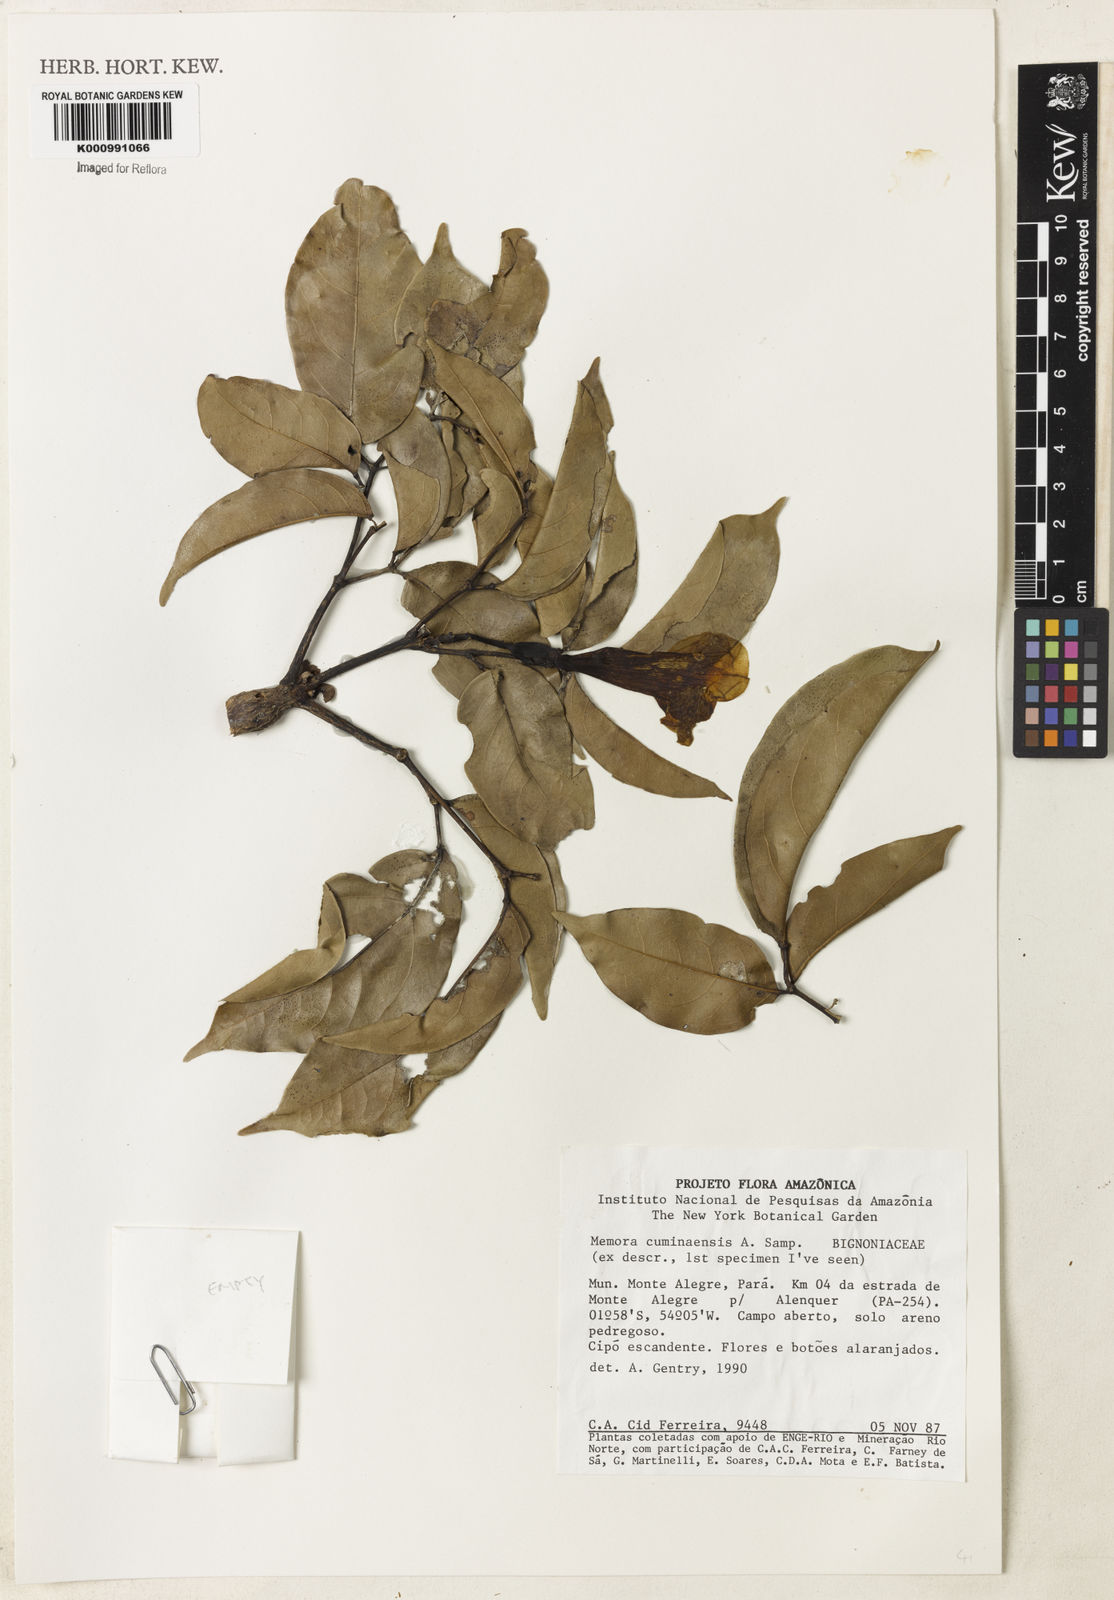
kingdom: Plantae
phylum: Tracheophyta
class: Magnoliopsida
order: Lamiales
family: Bignoniaceae
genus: Adenocalymma
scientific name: Adenocalymma Memora cuminaensis
